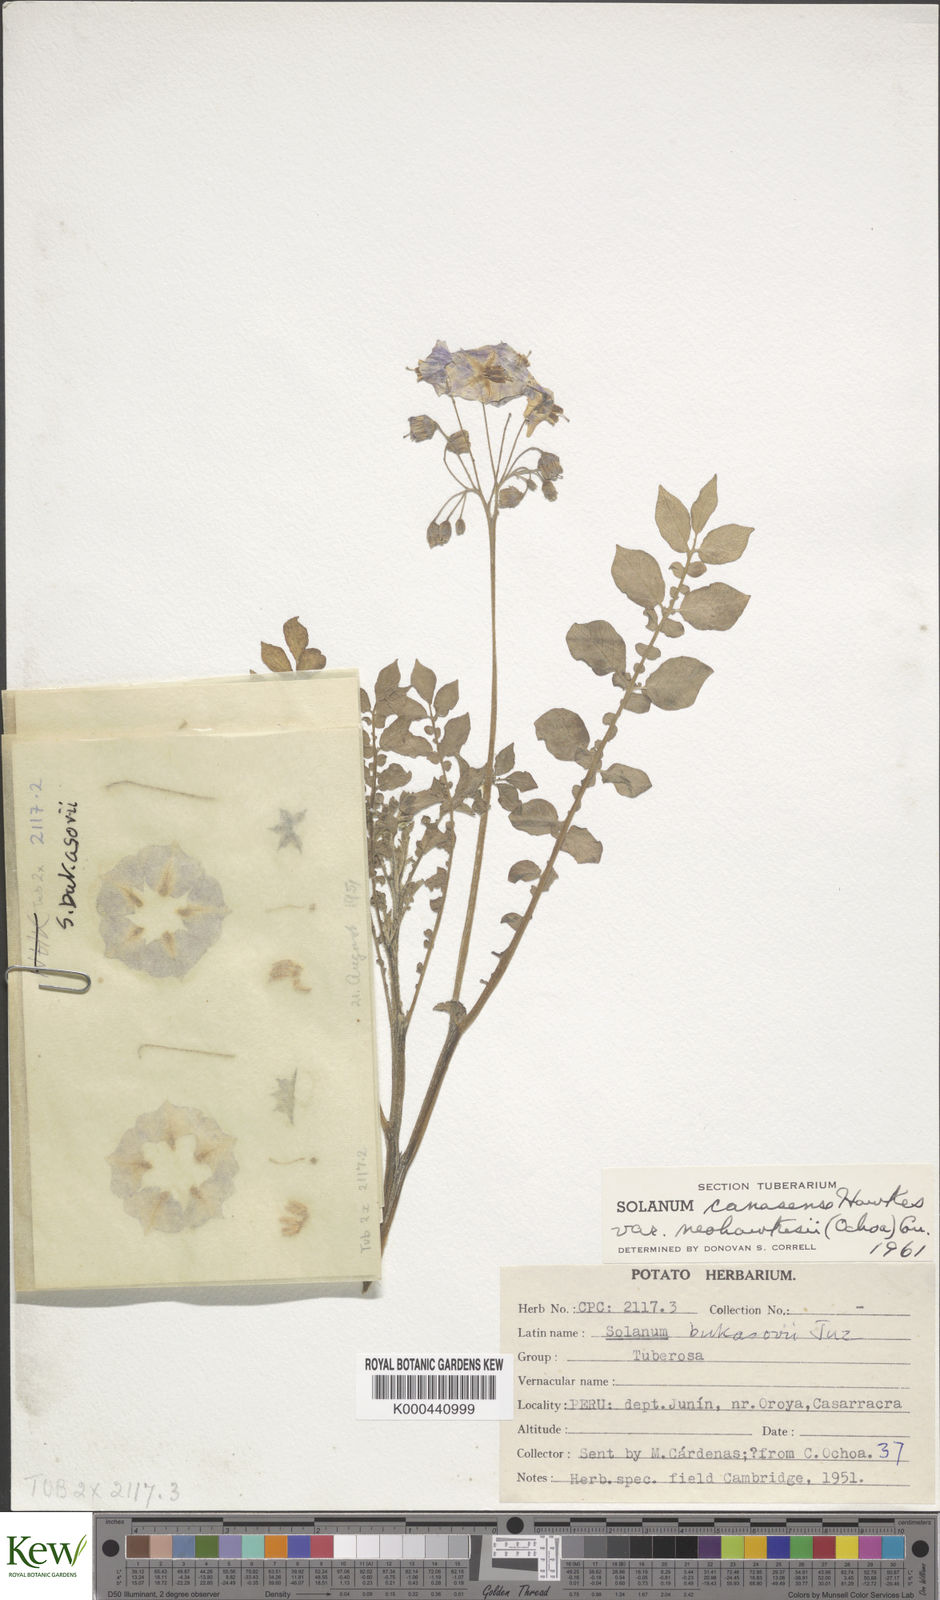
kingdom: Plantae
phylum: Tracheophyta
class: Magnoliopsida
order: Solanales
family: Solanaceae
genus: Solanum
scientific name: Solanum candolleanum
